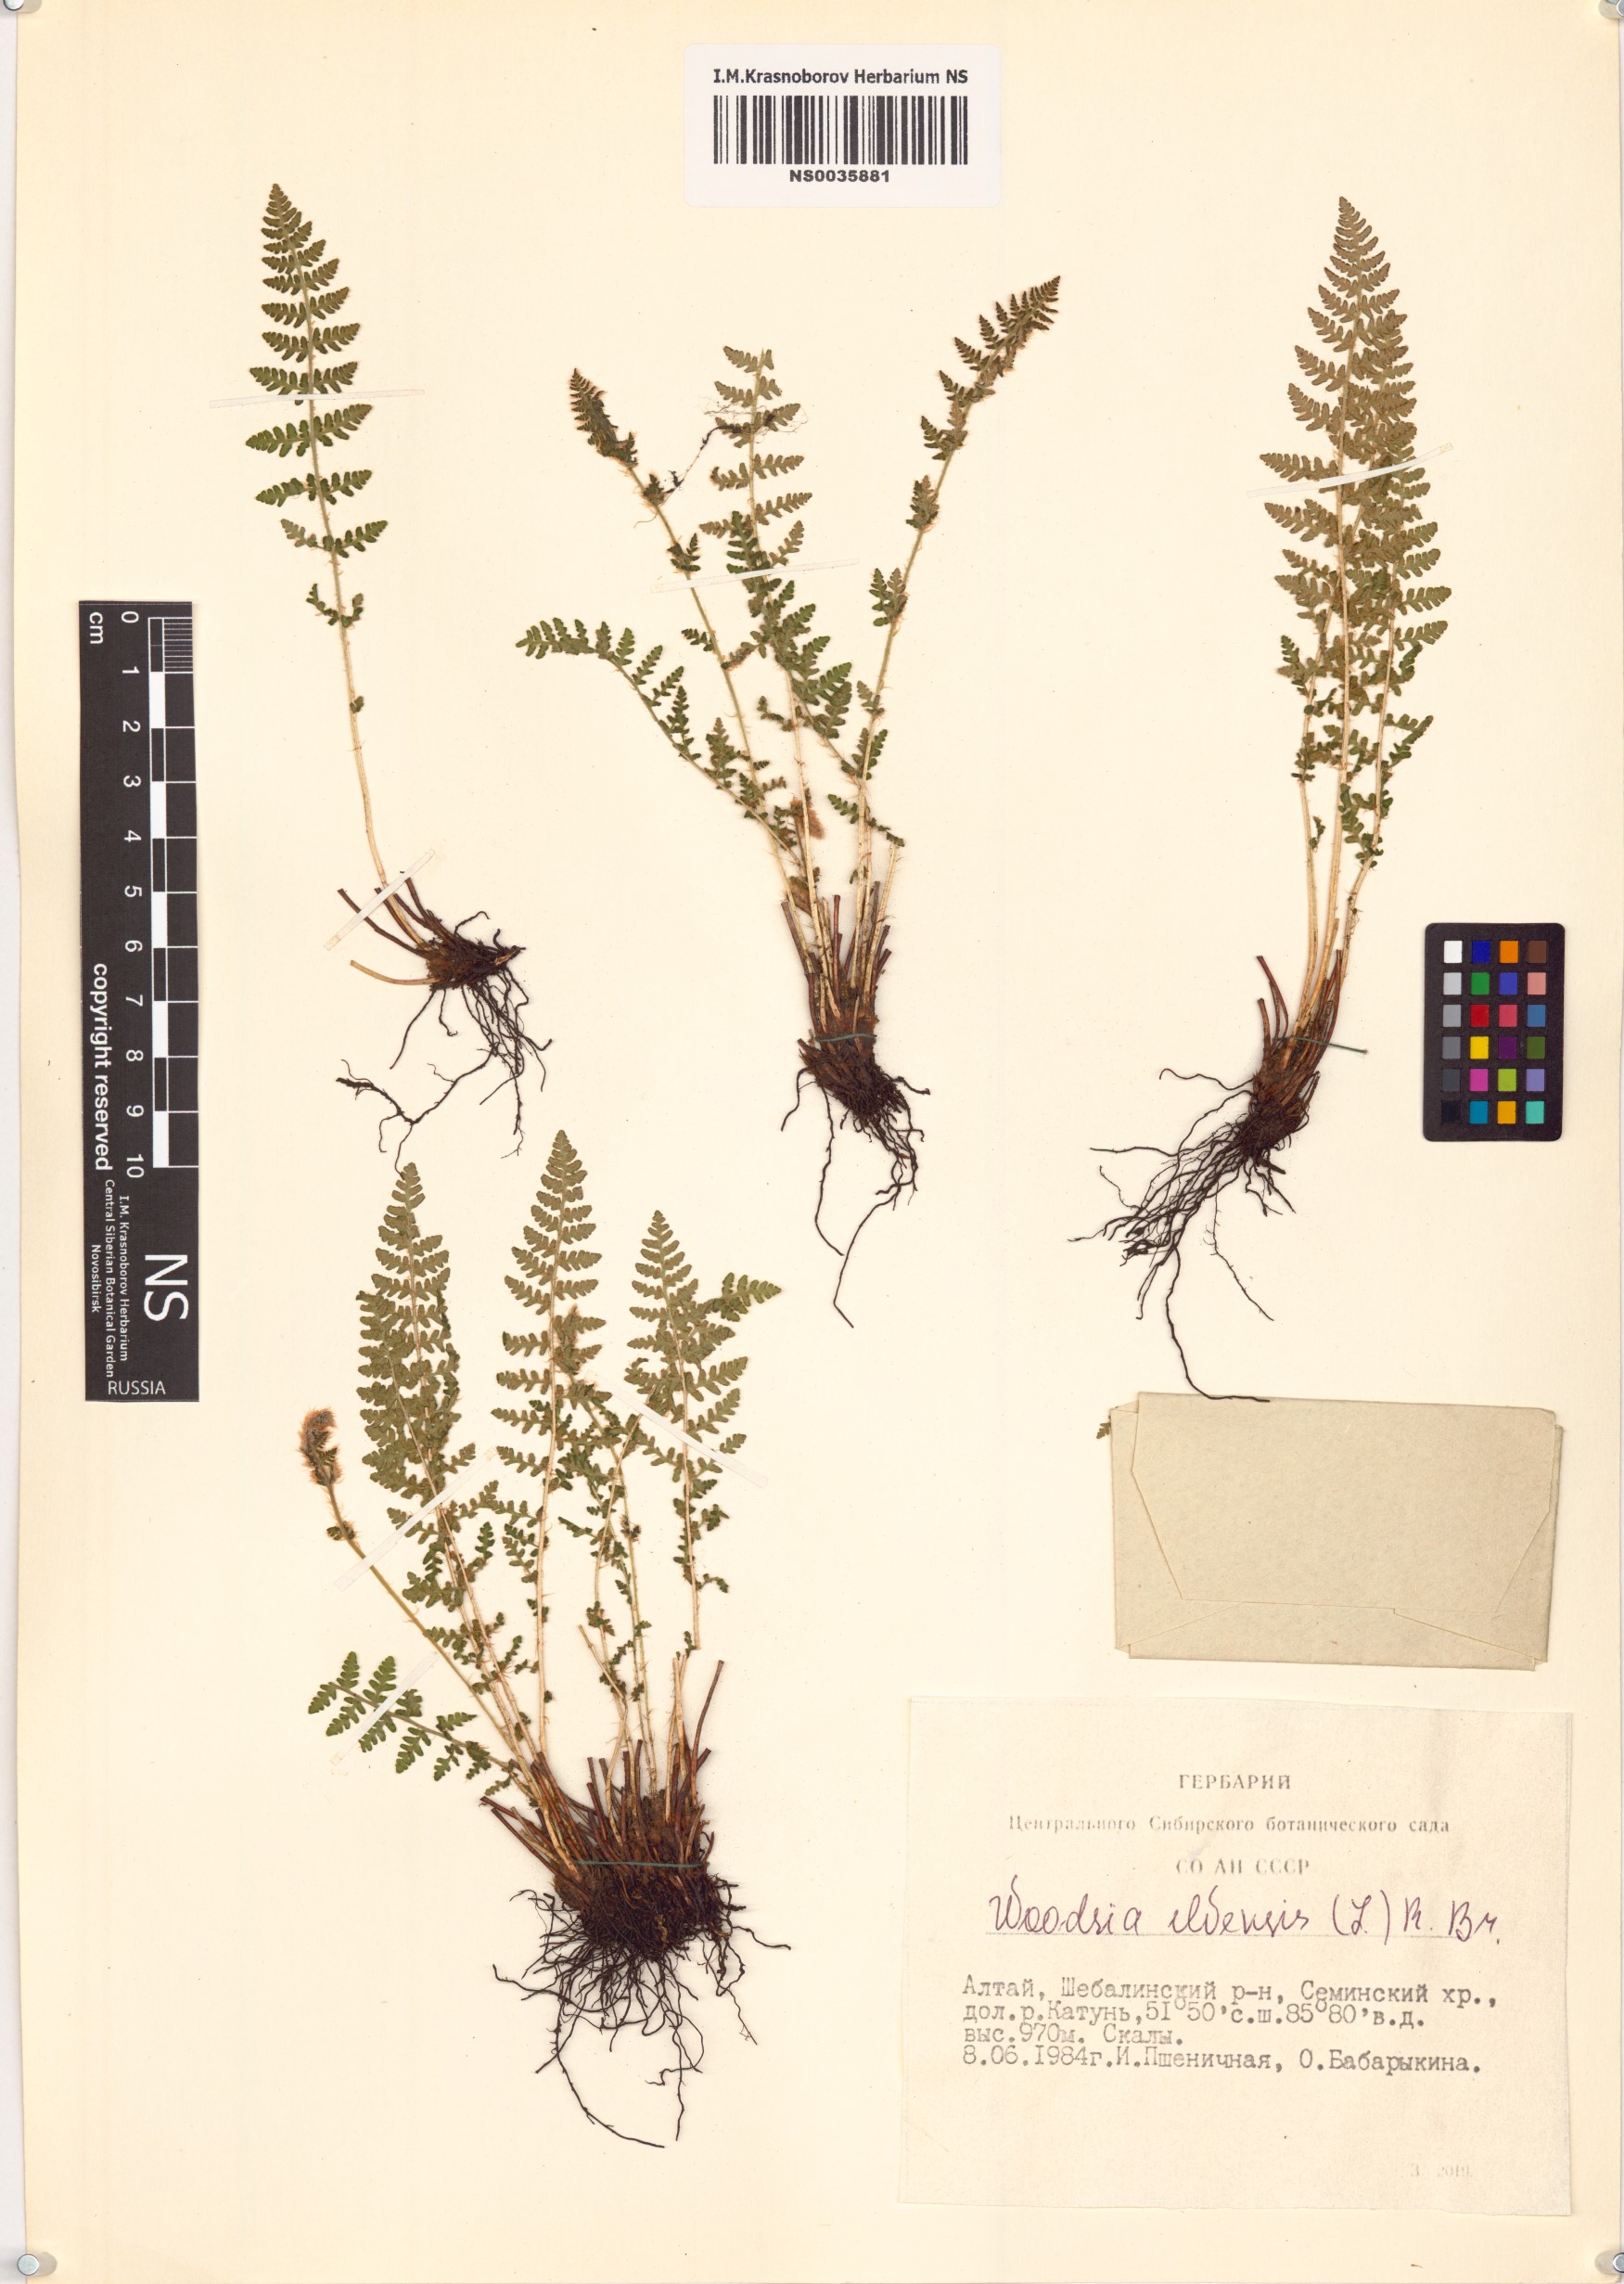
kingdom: Plantae
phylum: Tracheophyta
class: Polypodiopsida
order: Polypodiales
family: Woodsiaceae
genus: Woodsia
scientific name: Woodsia ilvensis
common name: Fragrant woodsia
